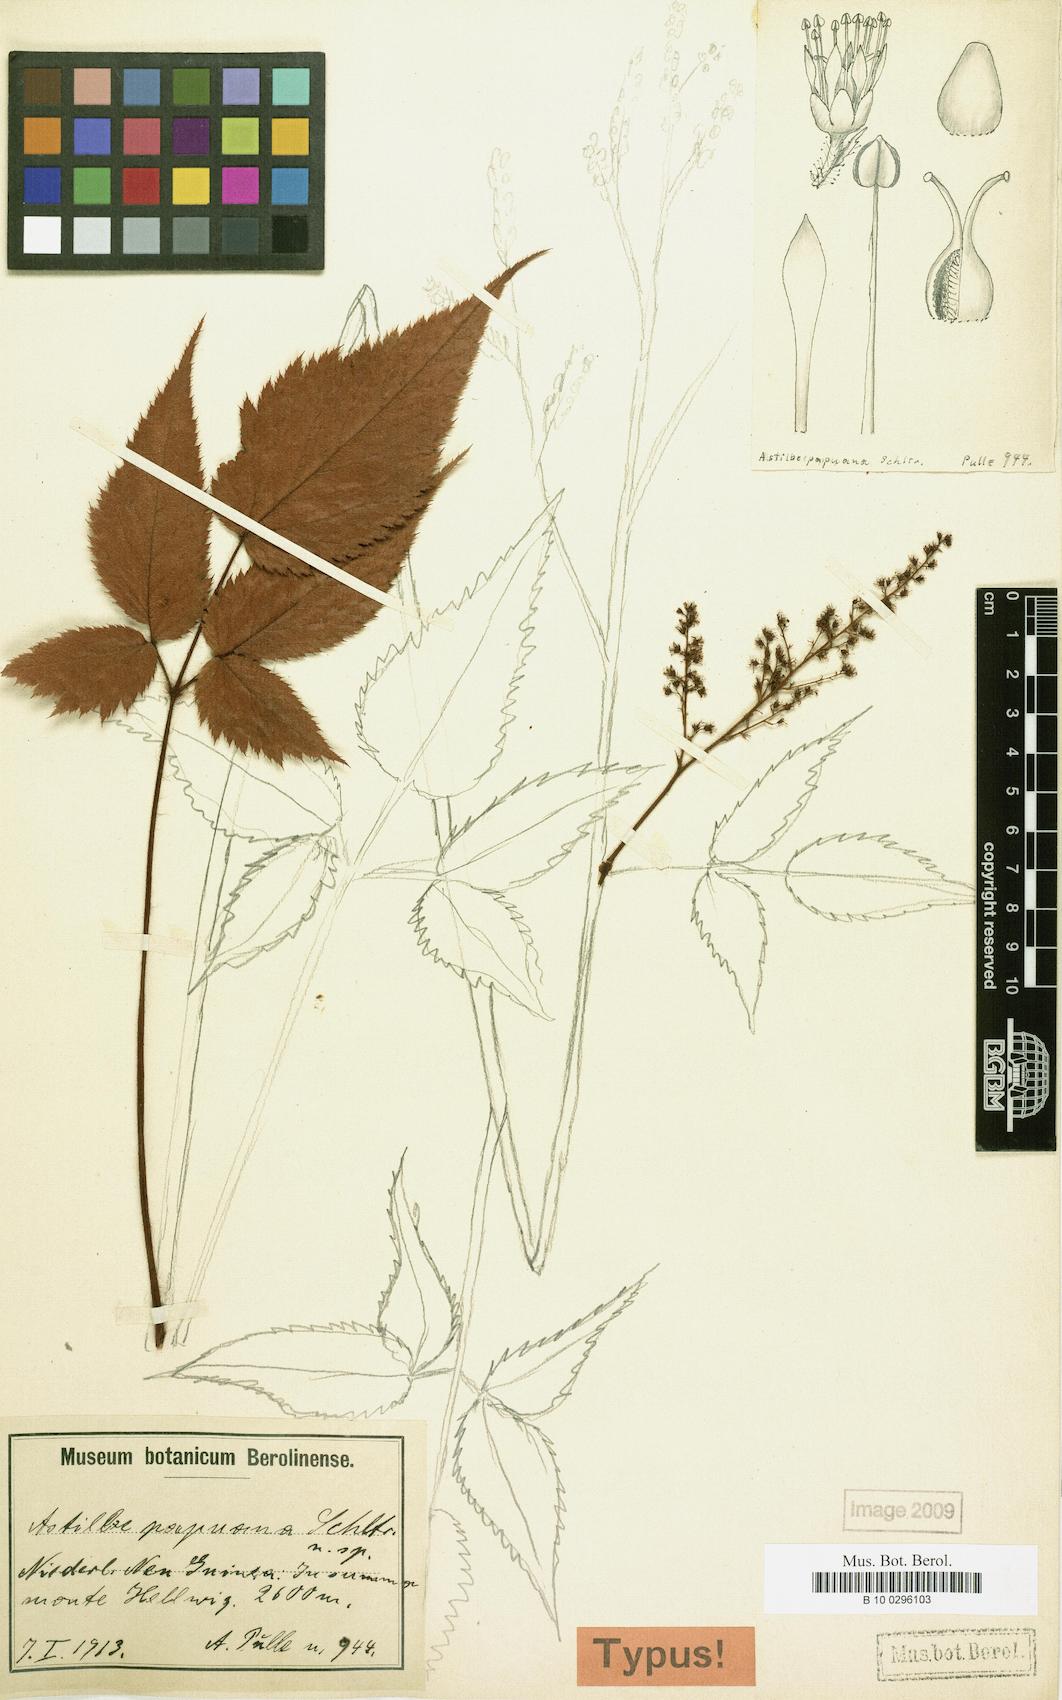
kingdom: Plantae
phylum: Tracheophyta
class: Magnoliopsida
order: Saxifragales
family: Saxifragaceae
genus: Astilbe
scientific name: Astilbe papuana
